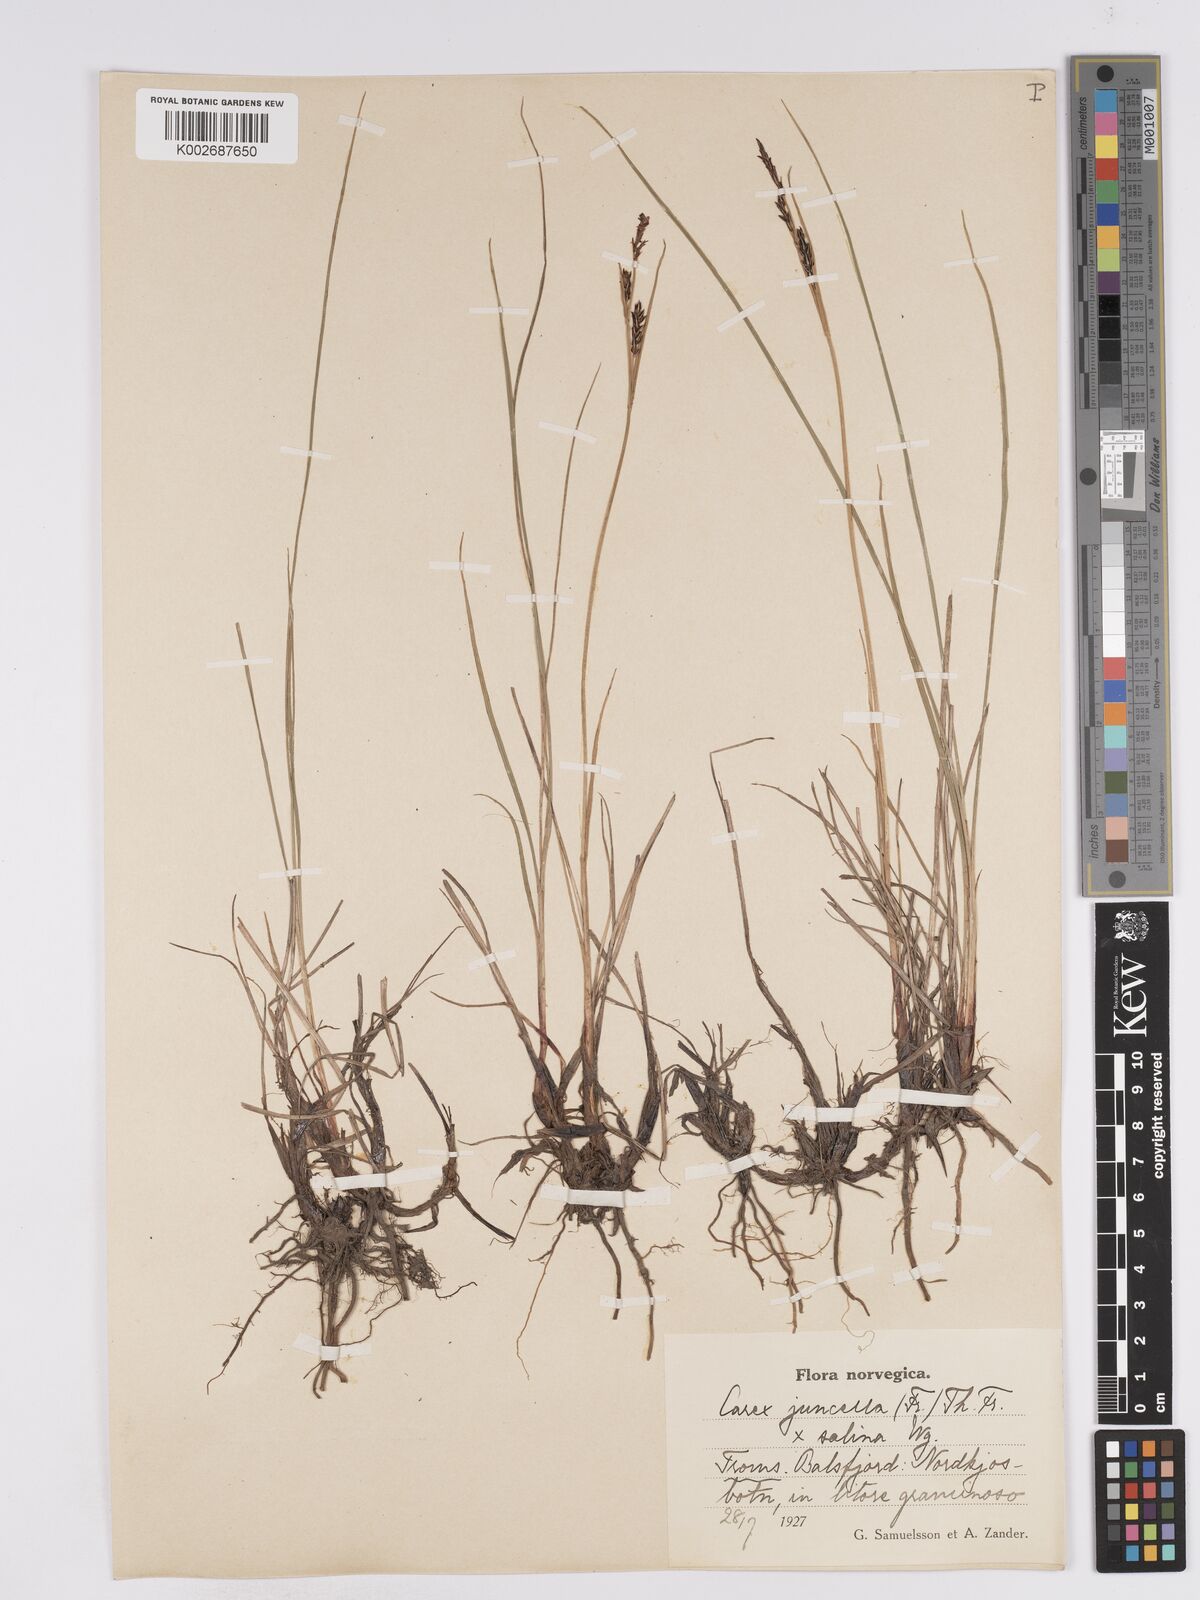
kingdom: Plantae
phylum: Tracheophyta
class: Liliopsida
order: Poales
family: Cyperaceae
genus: Carex
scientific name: Carex
